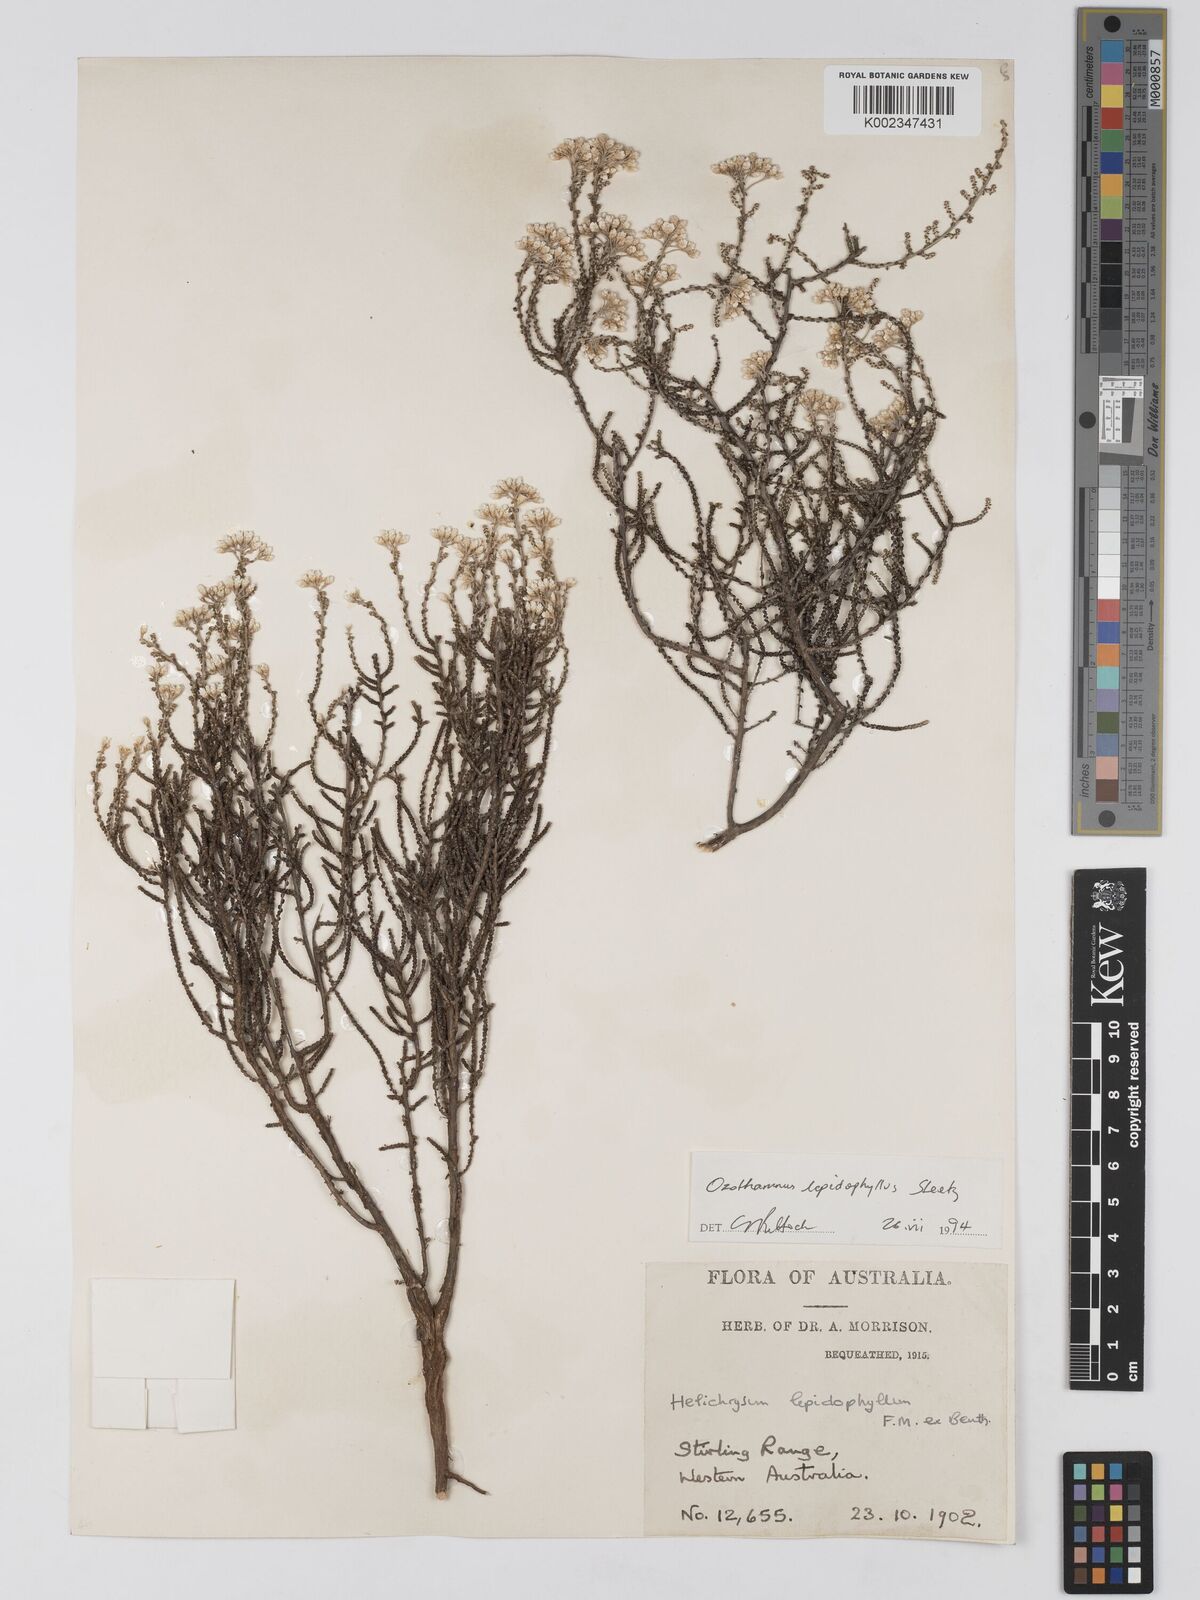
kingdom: Plantae
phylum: Tracheophyta
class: Magnoliopsida
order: Asterales
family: Asteraceae
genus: Ozothamnus
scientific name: Ozothamnus lepidophyllus
